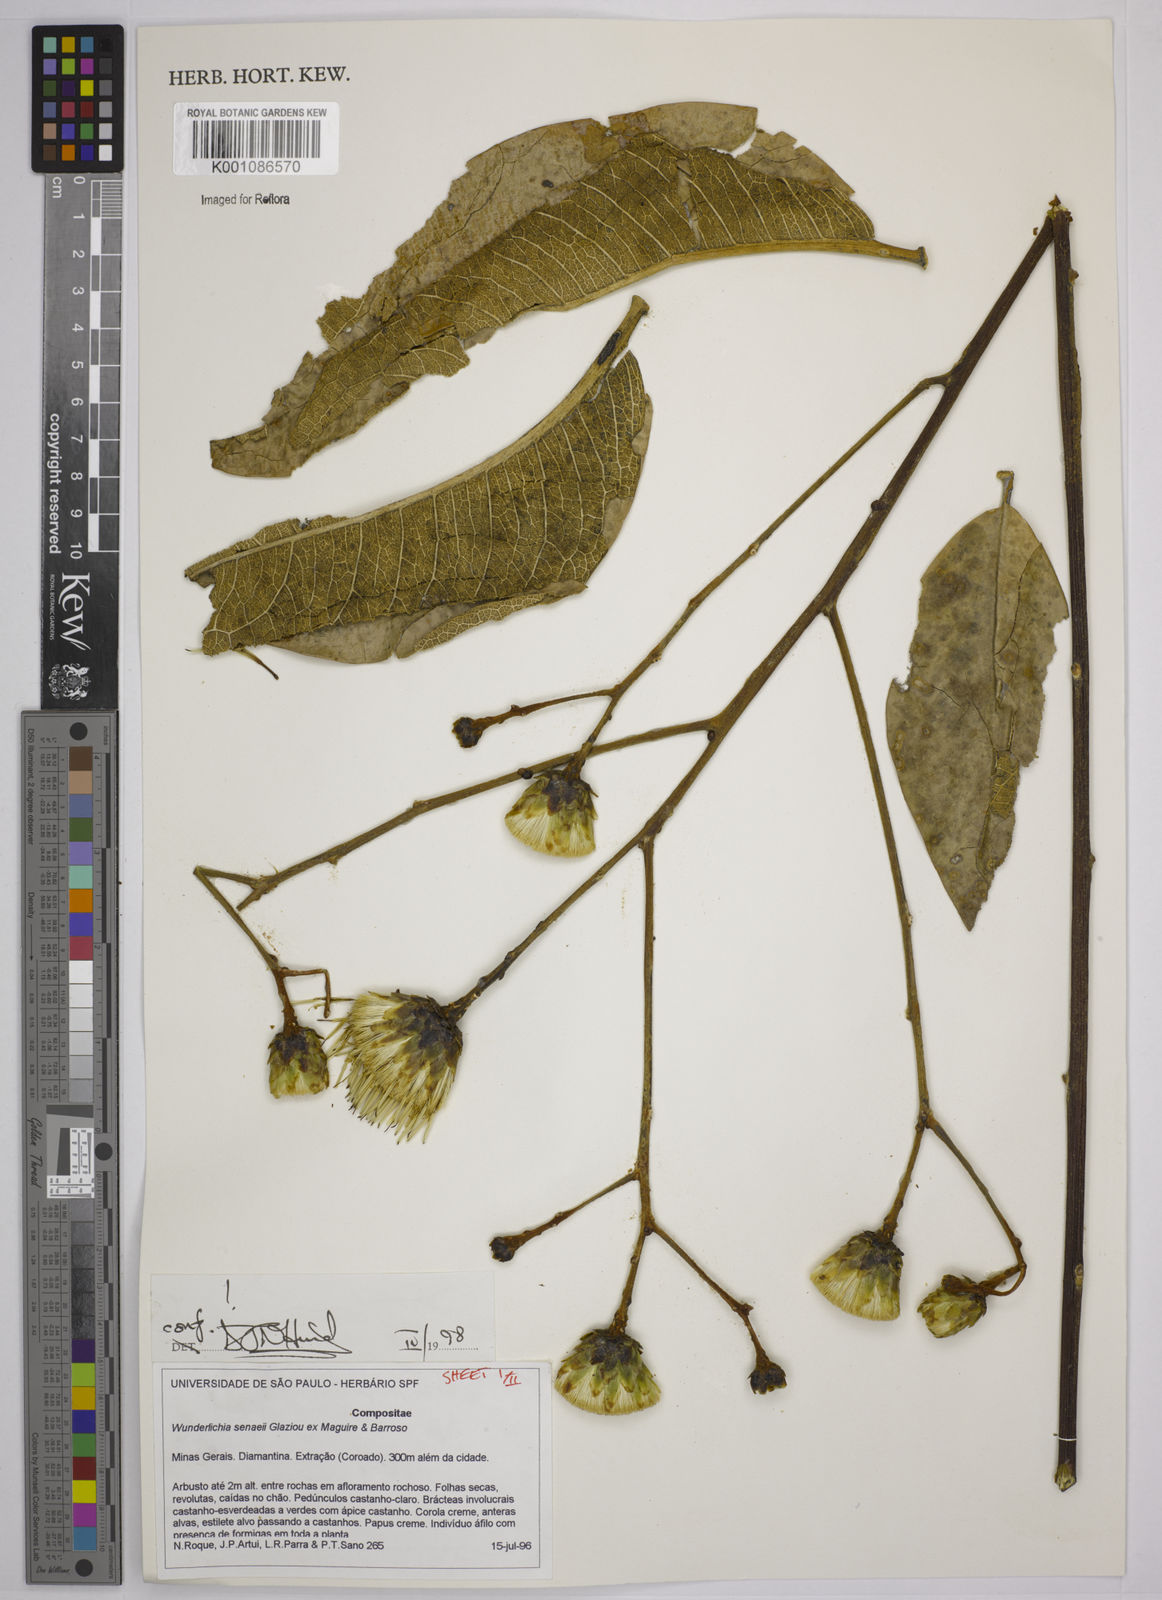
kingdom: Plantae
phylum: Tracheophyta
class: Magnoliopsida
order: Asterales
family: Asteraceae
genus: Wunderlichia
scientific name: Wunderlichia
